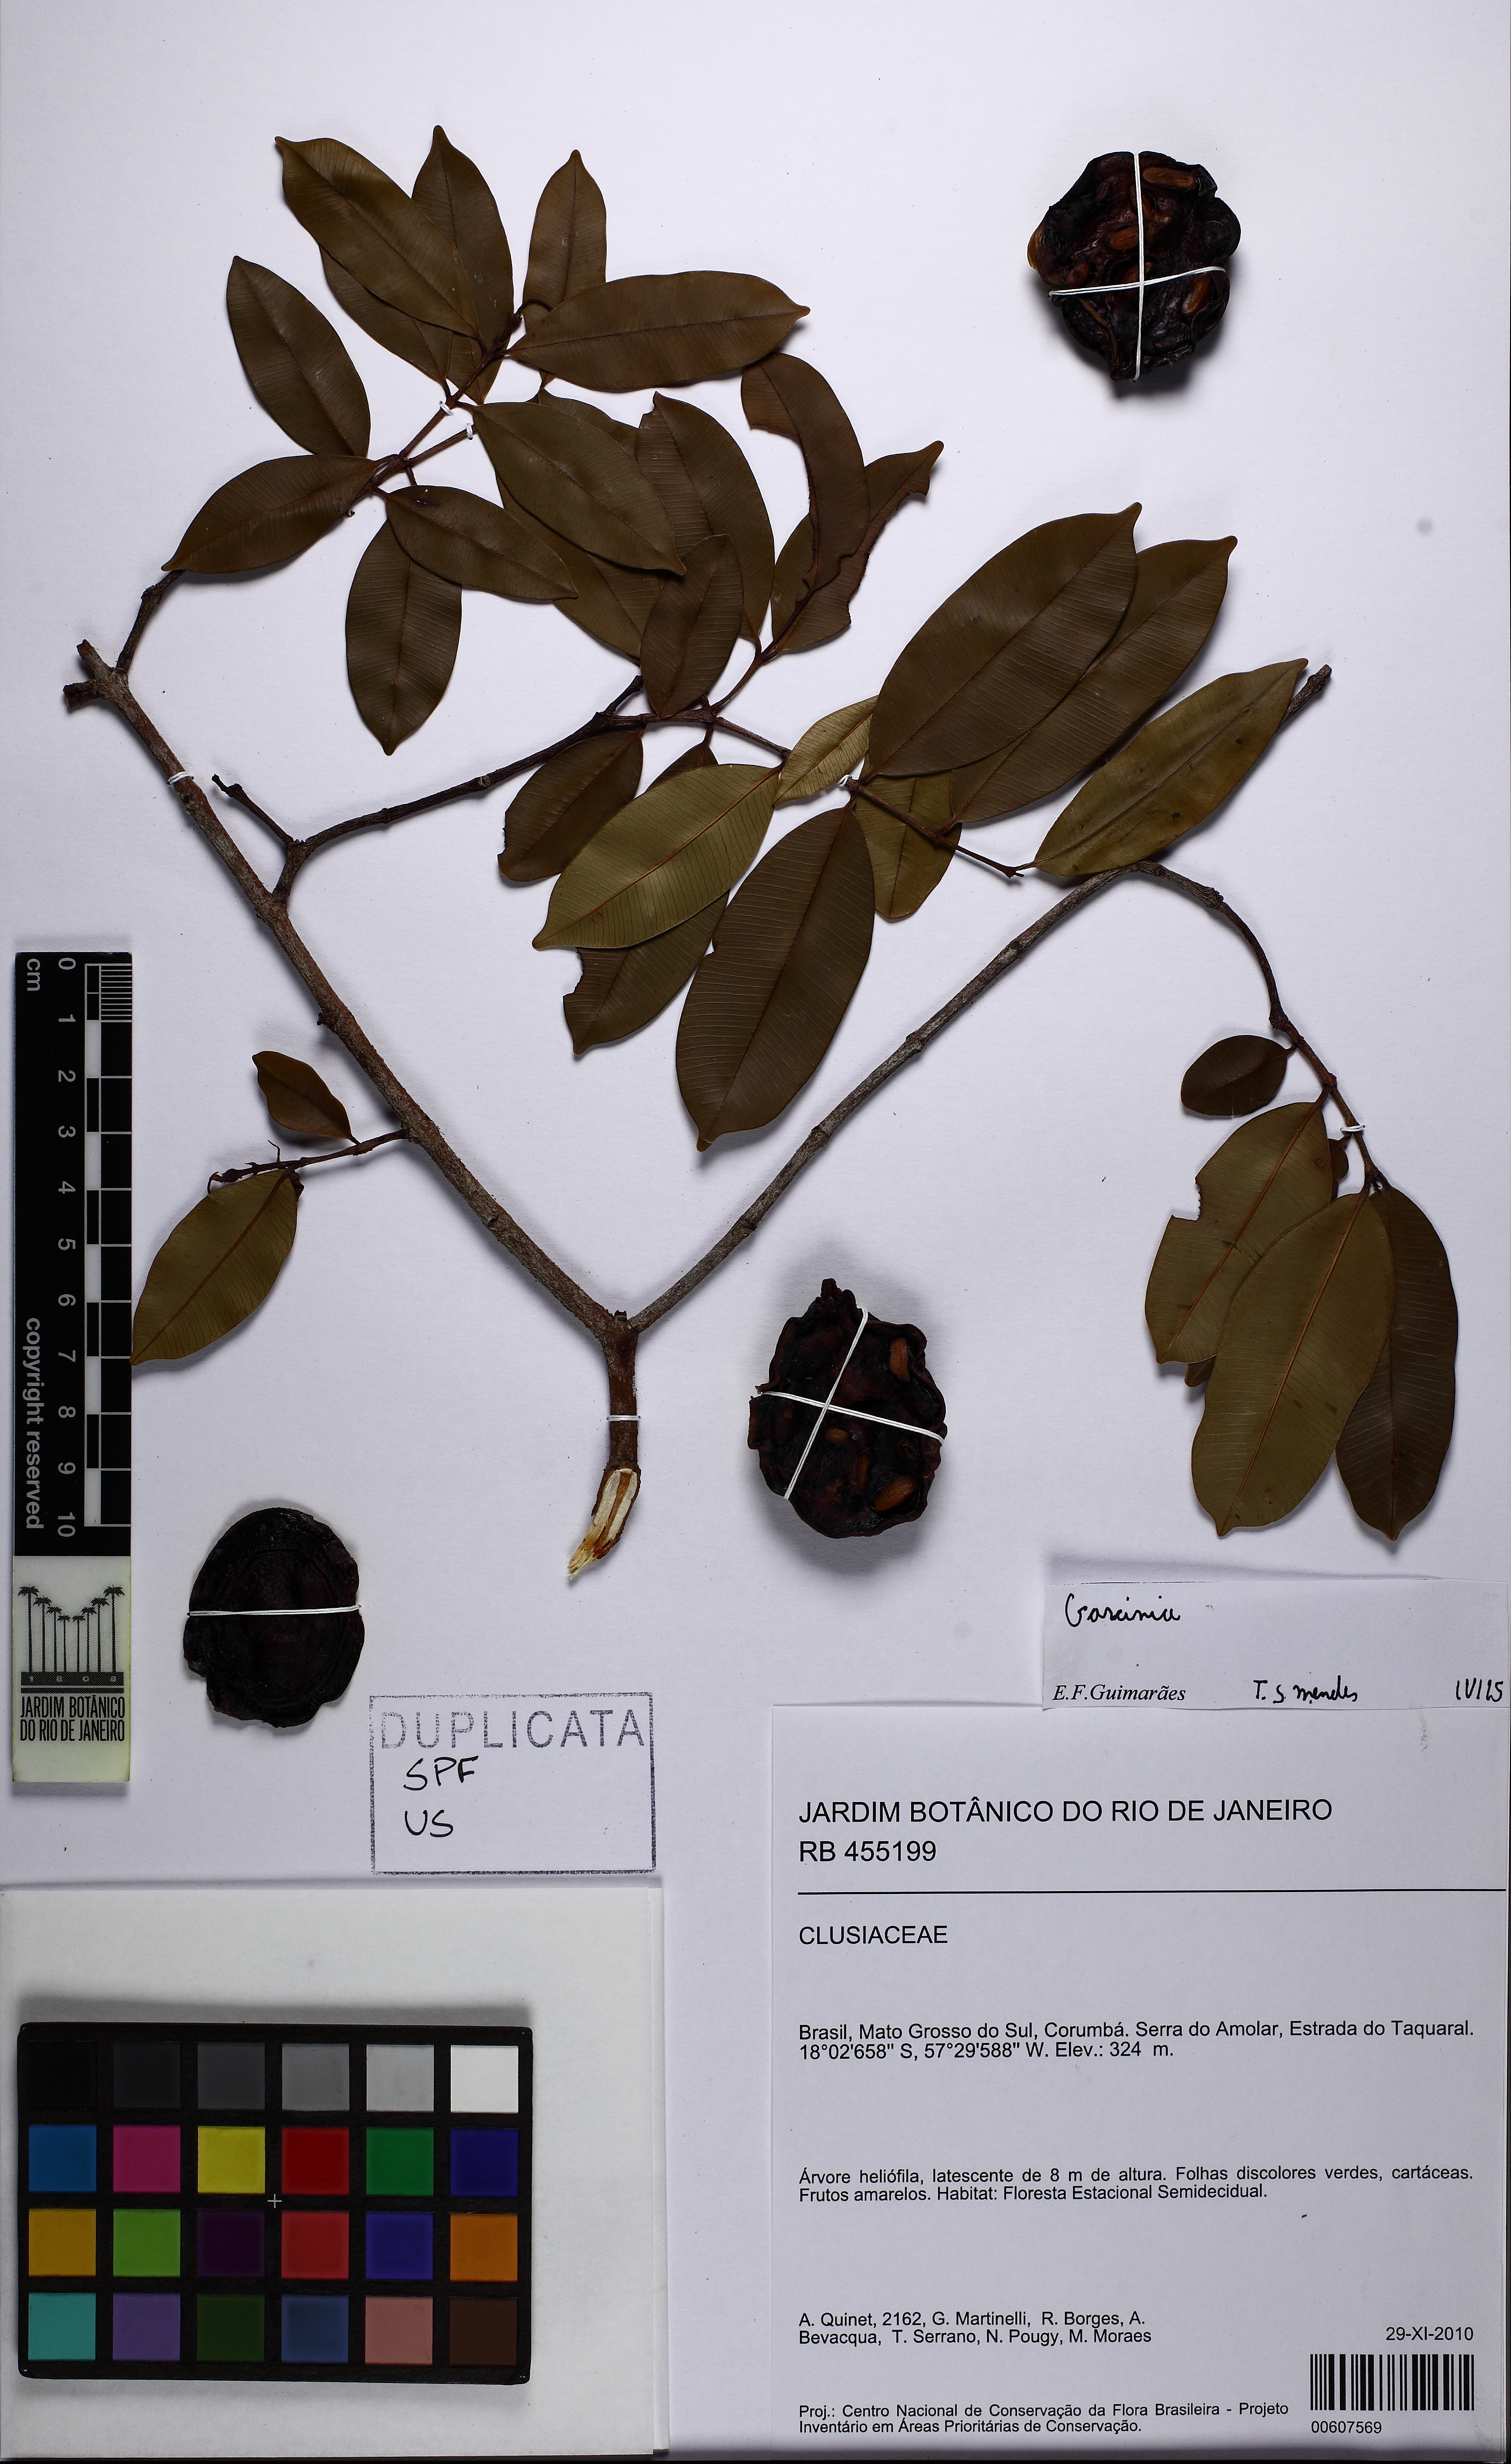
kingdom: Plantae
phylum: Tracheophyta
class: Magnoliopsida
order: Malpighiales
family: Calophyllaceae
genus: Calophyllum
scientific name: Calophyllum brasiliense
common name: Santa maria
